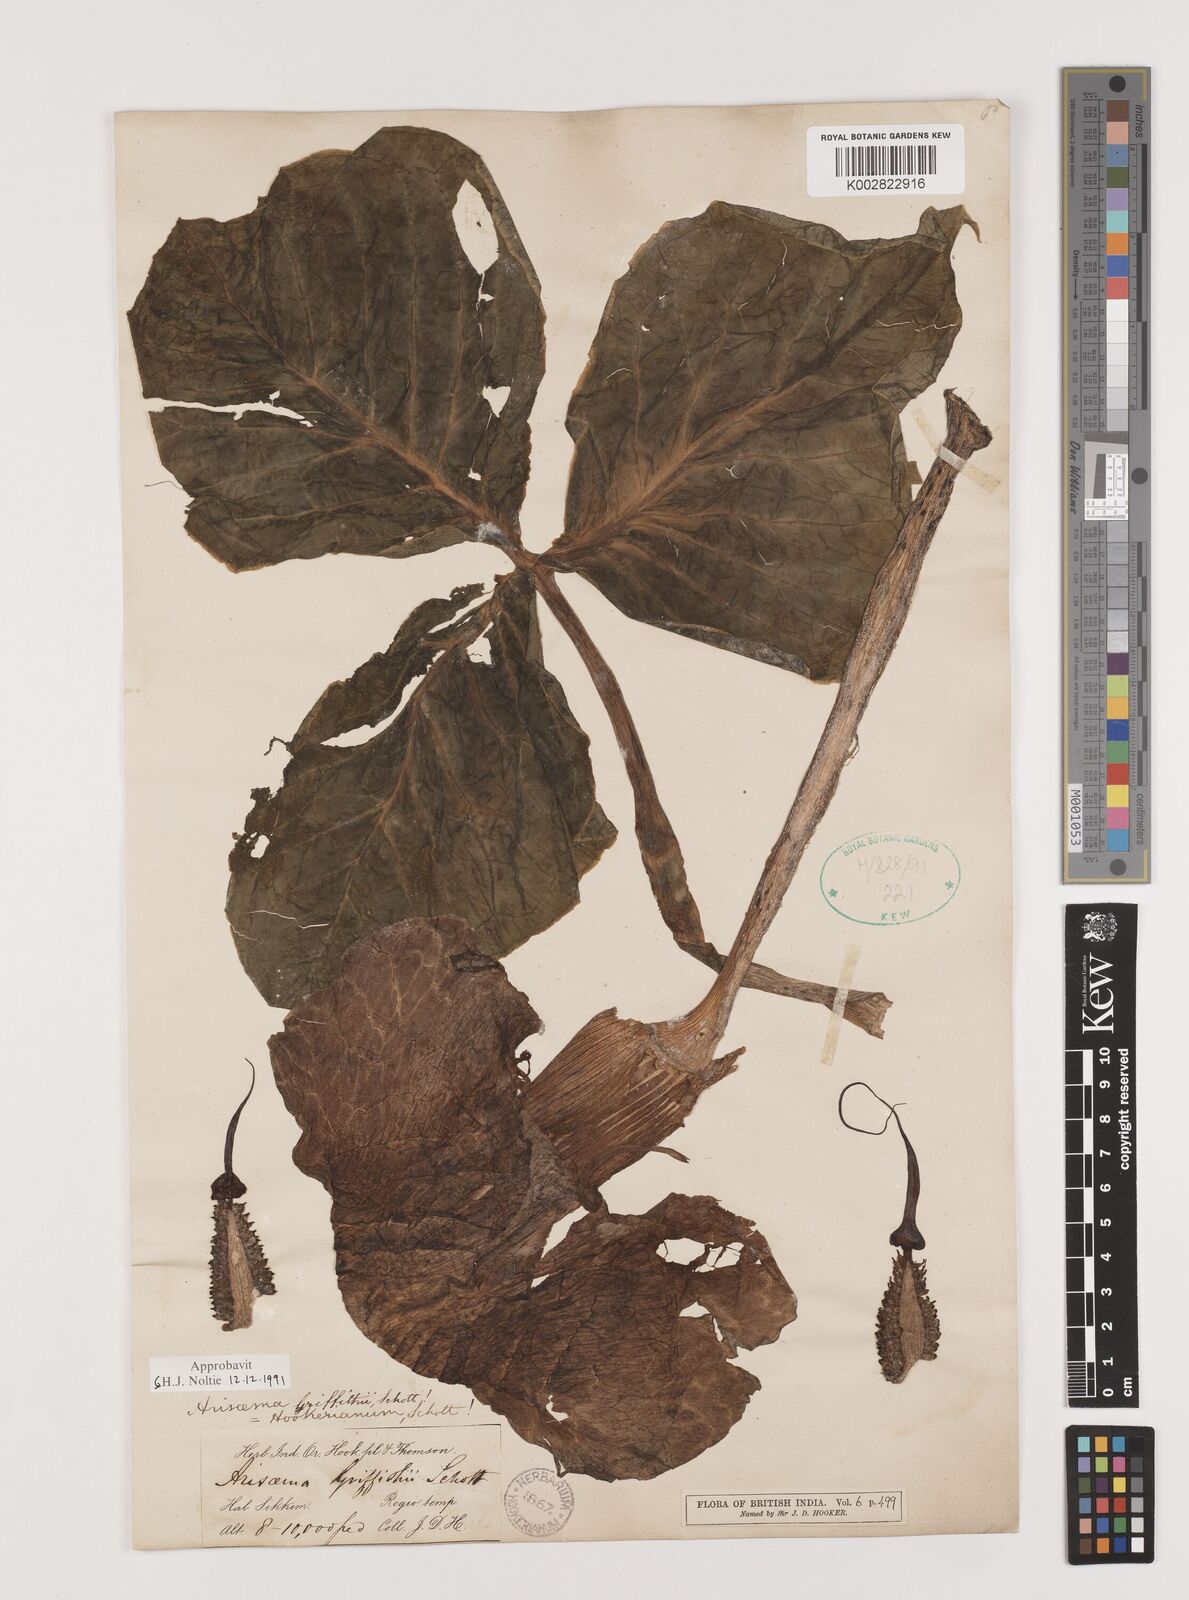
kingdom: Plantae
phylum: Tracheophyta
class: Liliopsida
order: Alismatales
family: Araceae
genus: Arisaema
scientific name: Arisaema griffithii
